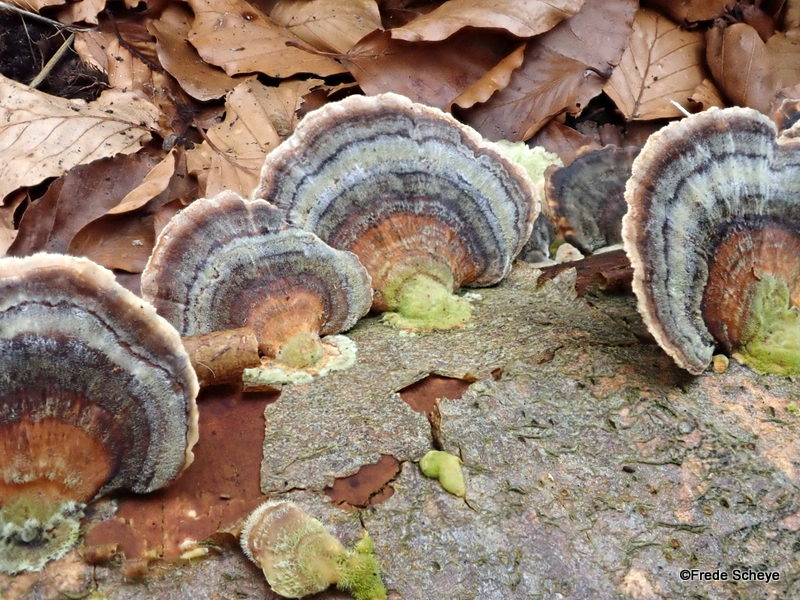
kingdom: Fungi
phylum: Basidiomycota
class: Agaricomycetes
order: Polyporales
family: Polyporaceae
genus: Trametes
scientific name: Trametes versicolor
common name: broget læderporesvamp
